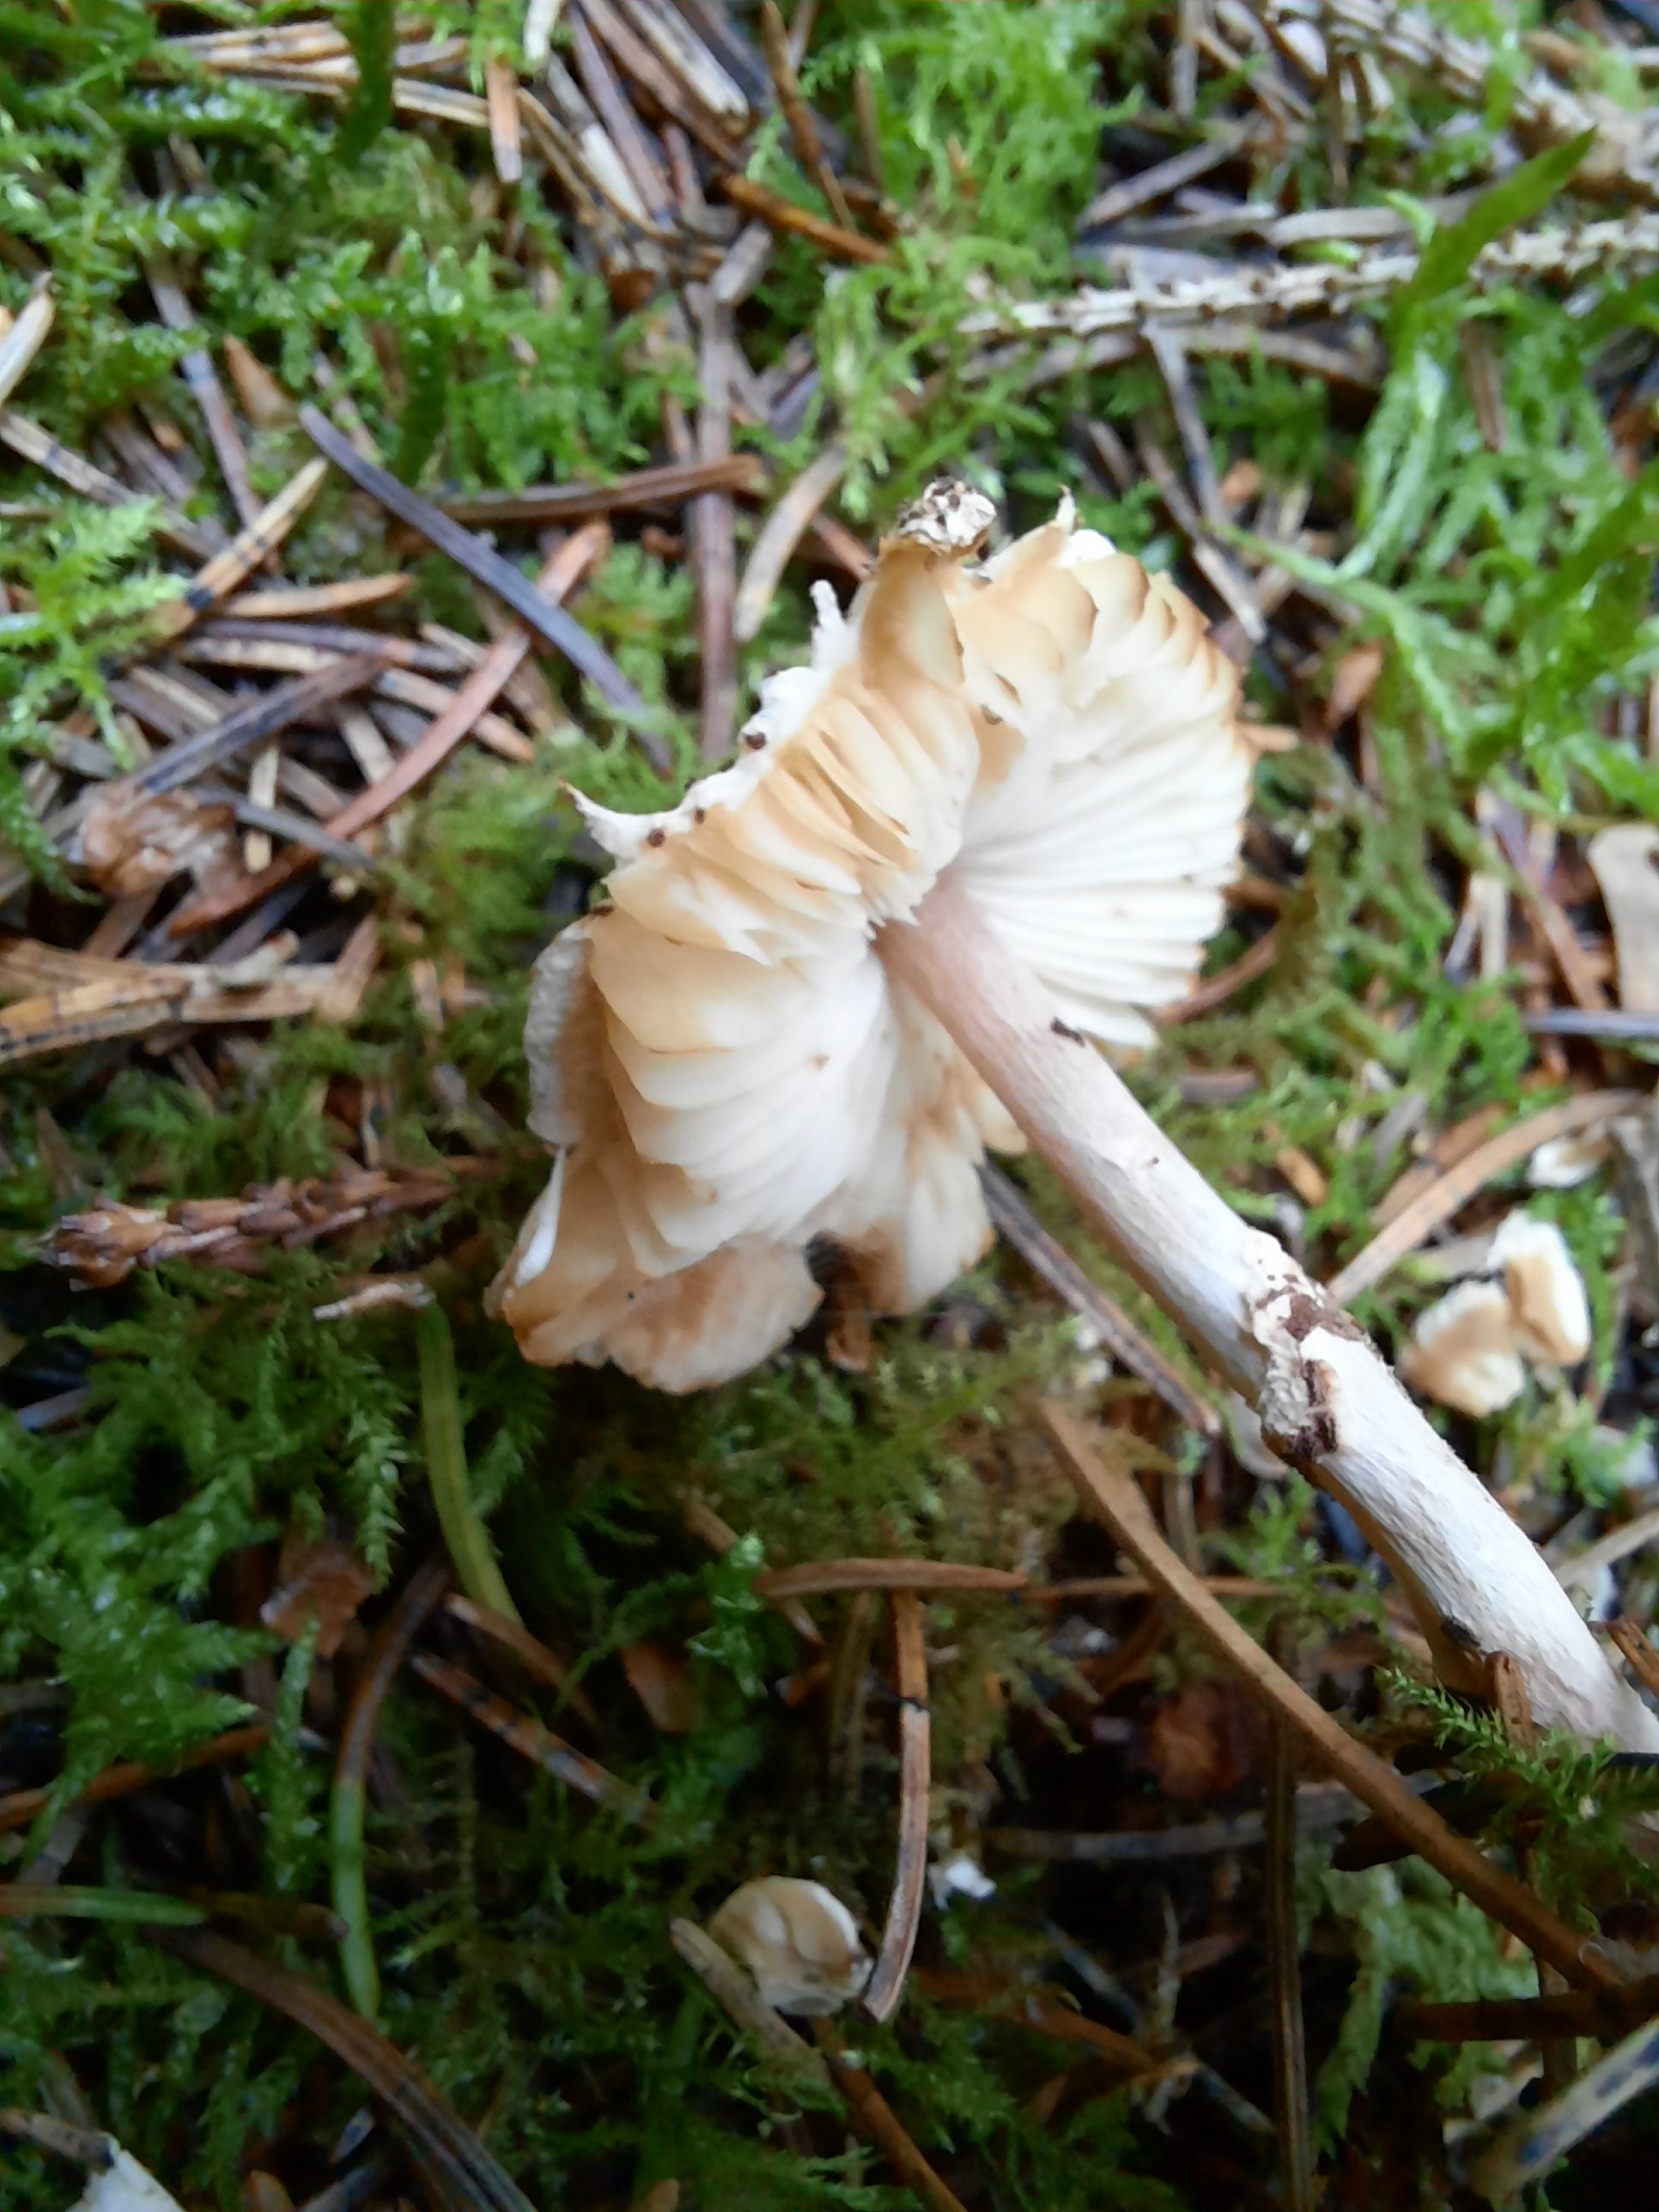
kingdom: Fungi
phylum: Basidiomycota
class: Agaricomycetes
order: Agaricales
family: Agaricaceae
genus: Lepiota
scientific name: Lepiota felina
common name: sortskællet parasolhat
